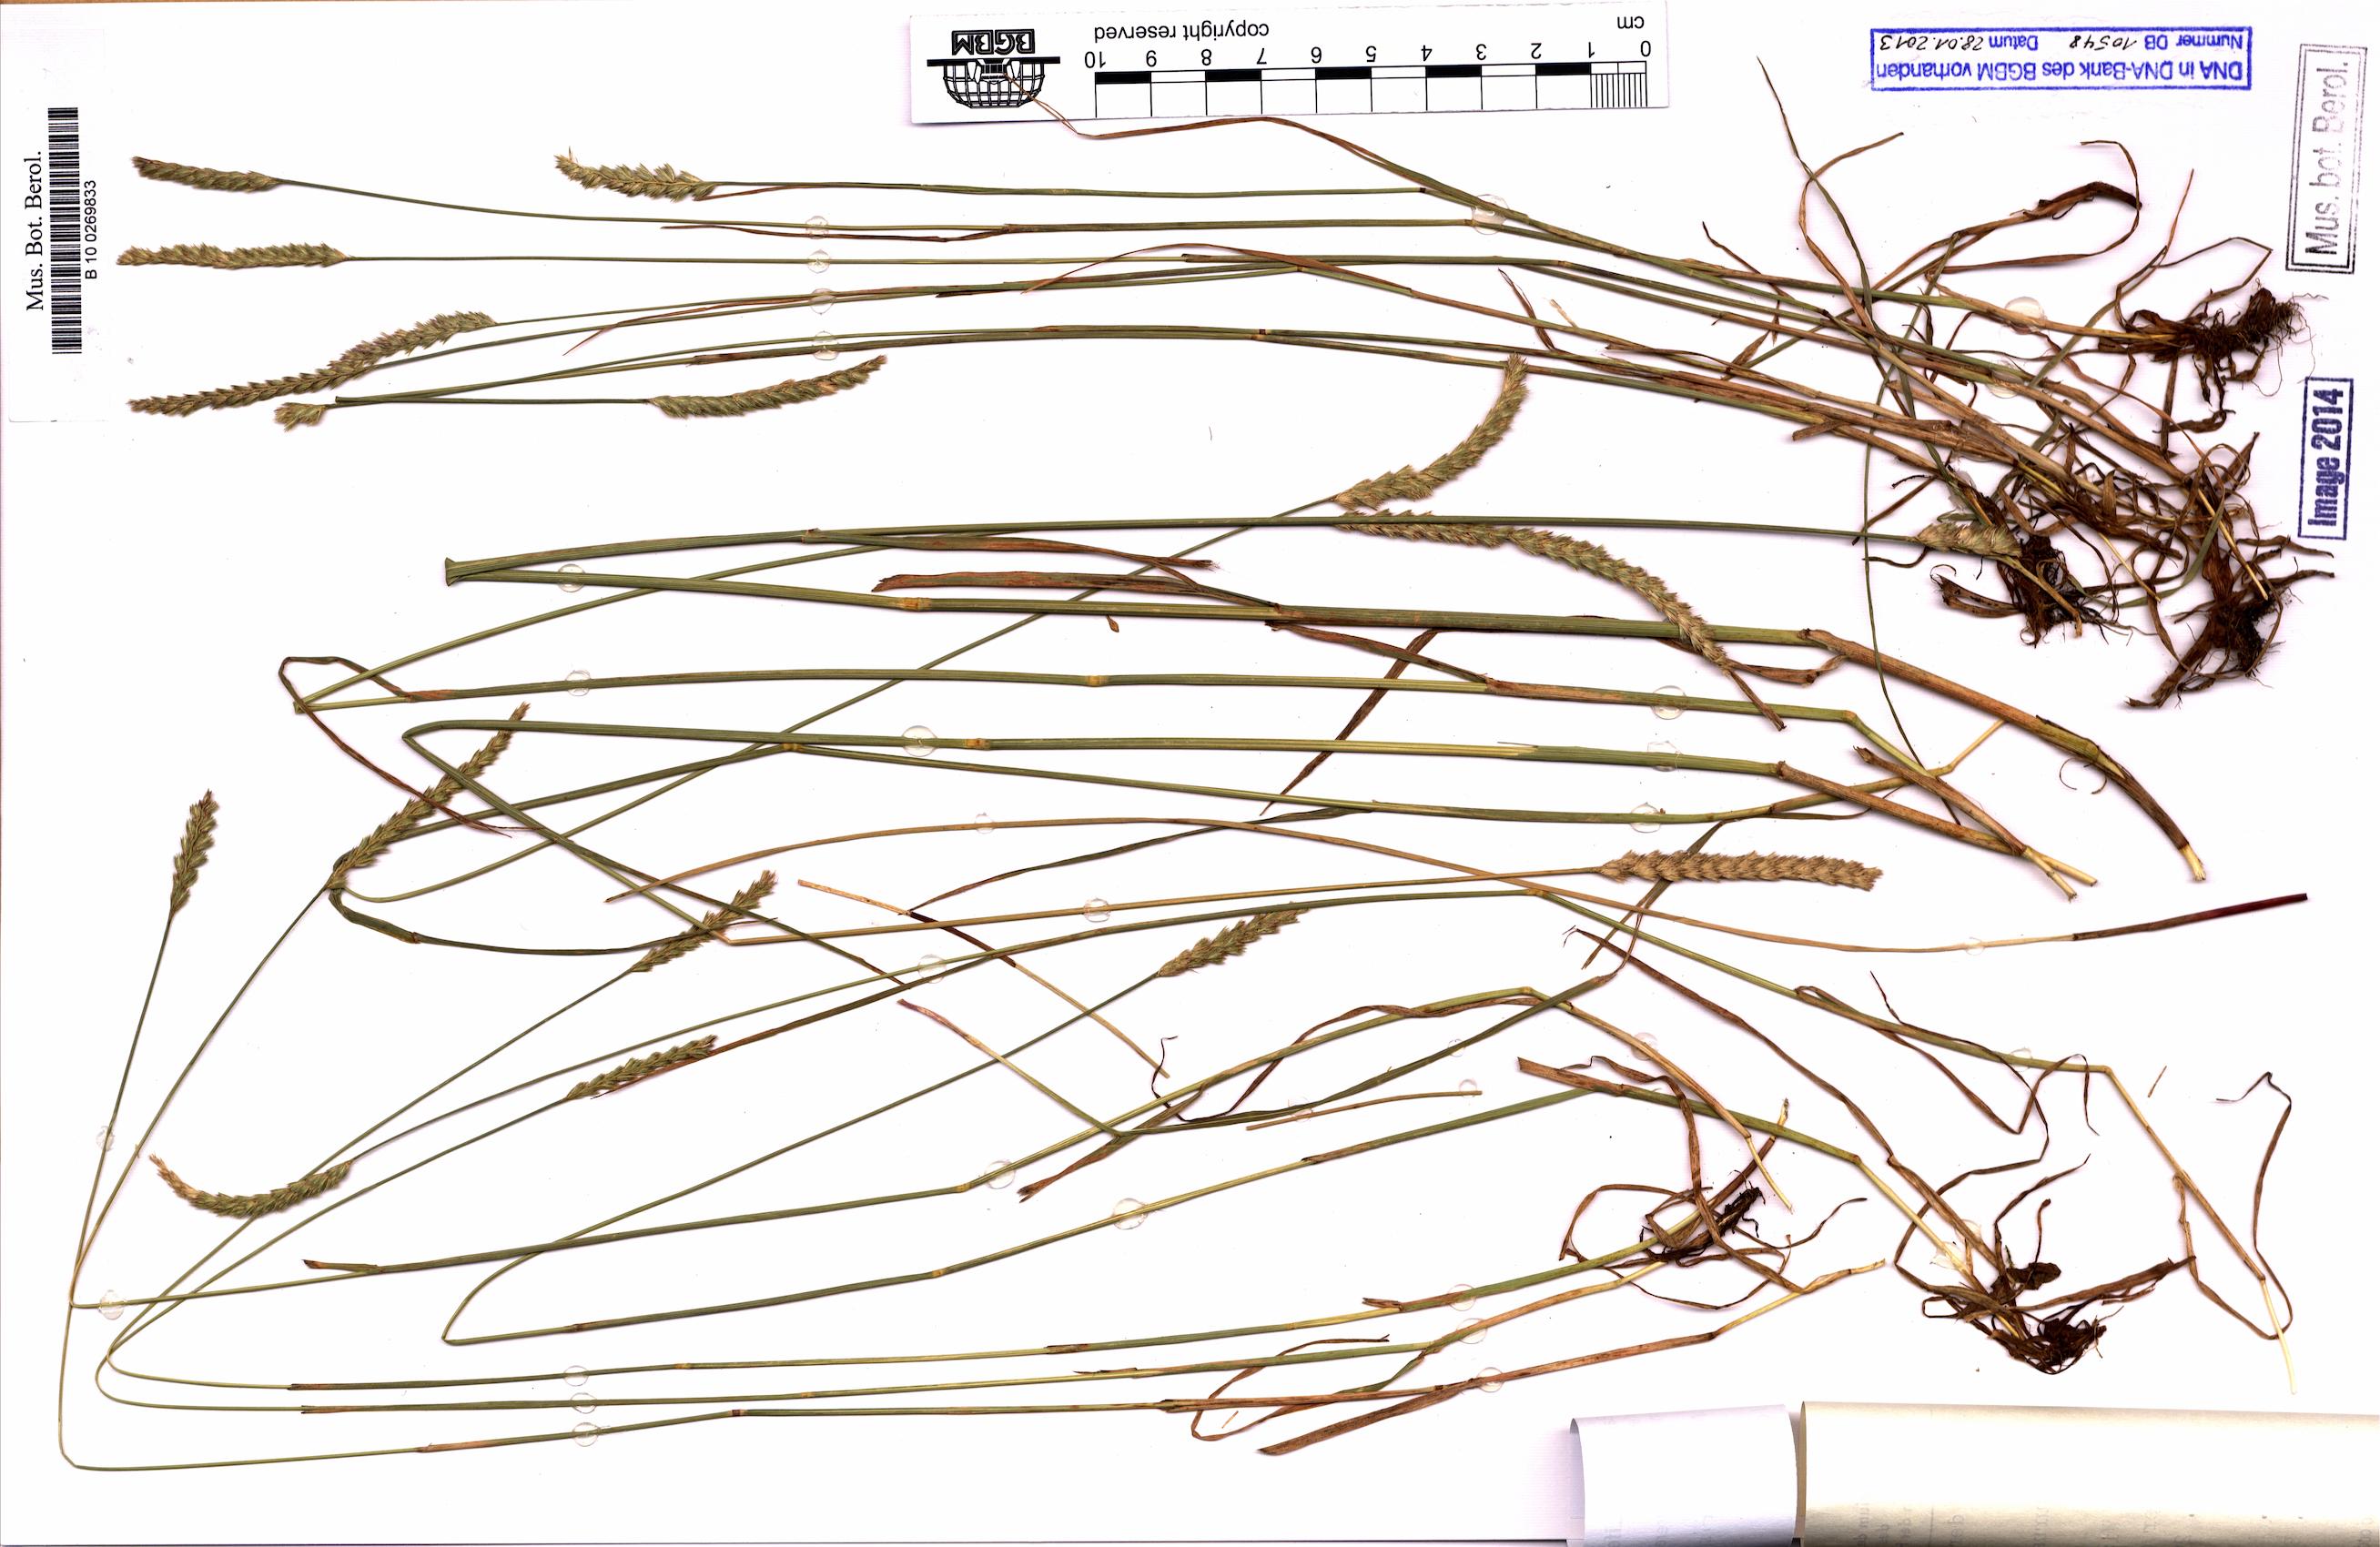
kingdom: Plantae
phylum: Tracheophyta
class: Liliopsida
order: Poales
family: Poaceae
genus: Cynosurus
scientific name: Cynosurus cristatus
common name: Crested dog's-tail
